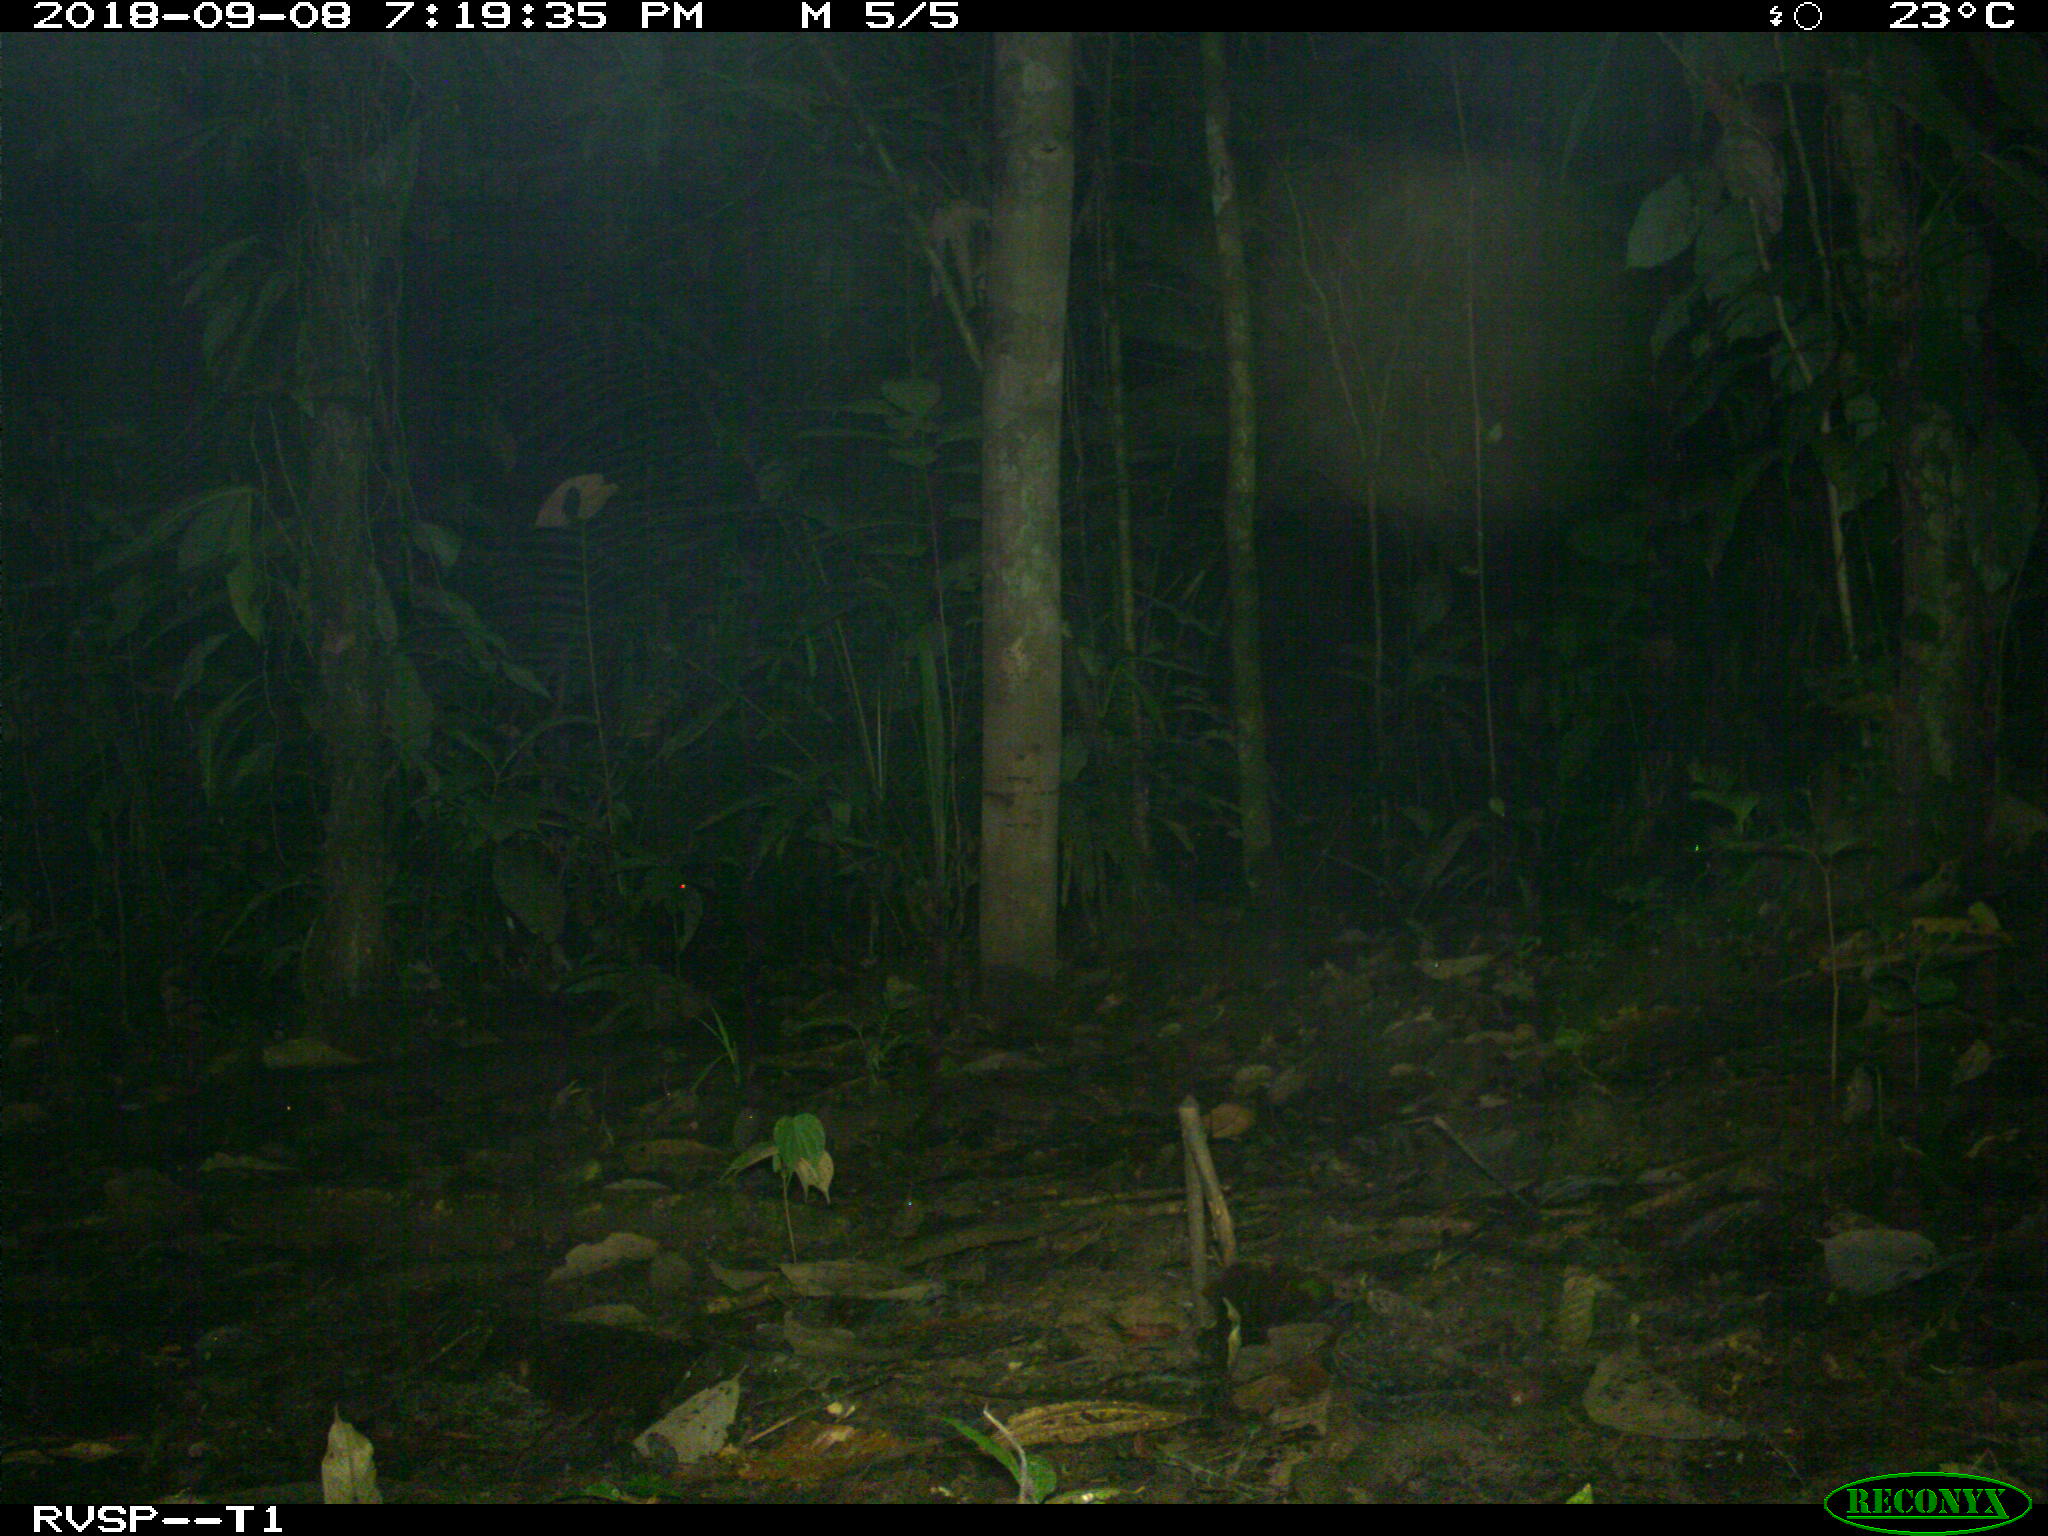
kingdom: Animalia
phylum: Chordata
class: Mammalia
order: Rodentia
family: Dasyproctidae
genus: Dasyprocta
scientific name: Dasyprocta punctata
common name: Central american agouti
